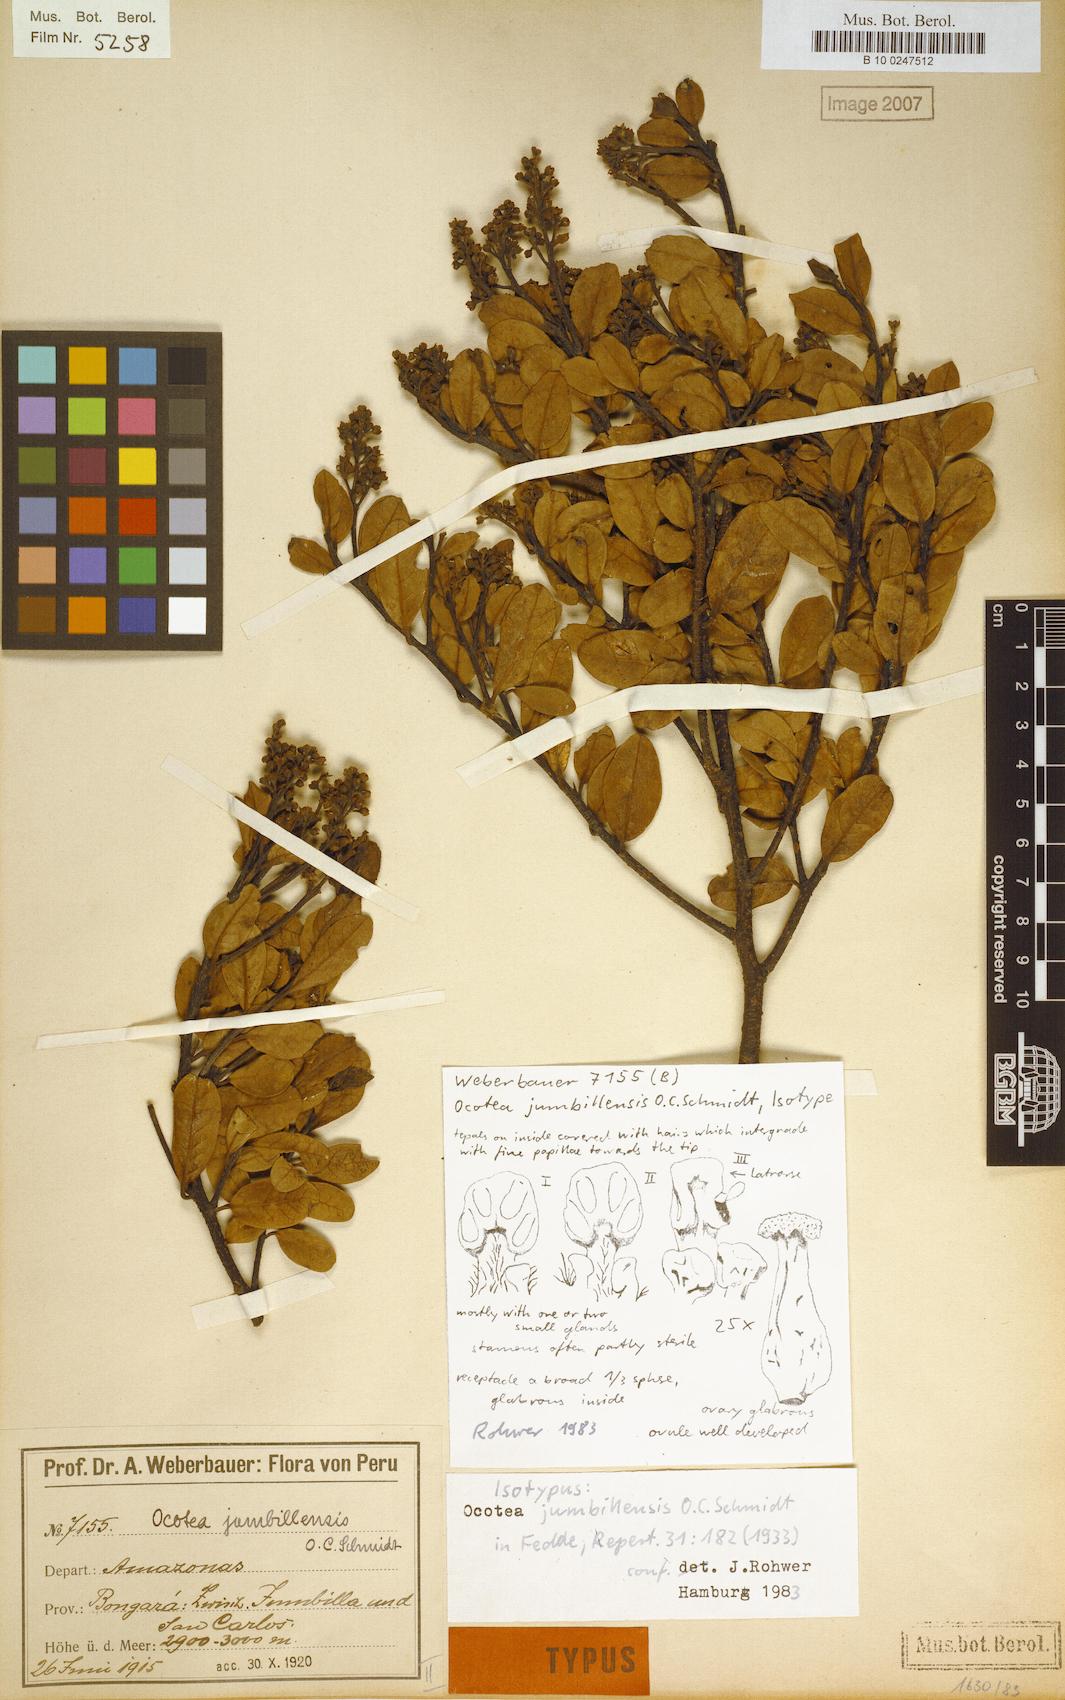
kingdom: Plantae
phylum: Tracheophyta
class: Magnoliopsida
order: Laurales
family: Lauraceae
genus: Ocotea
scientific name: Ocotea mandonii
